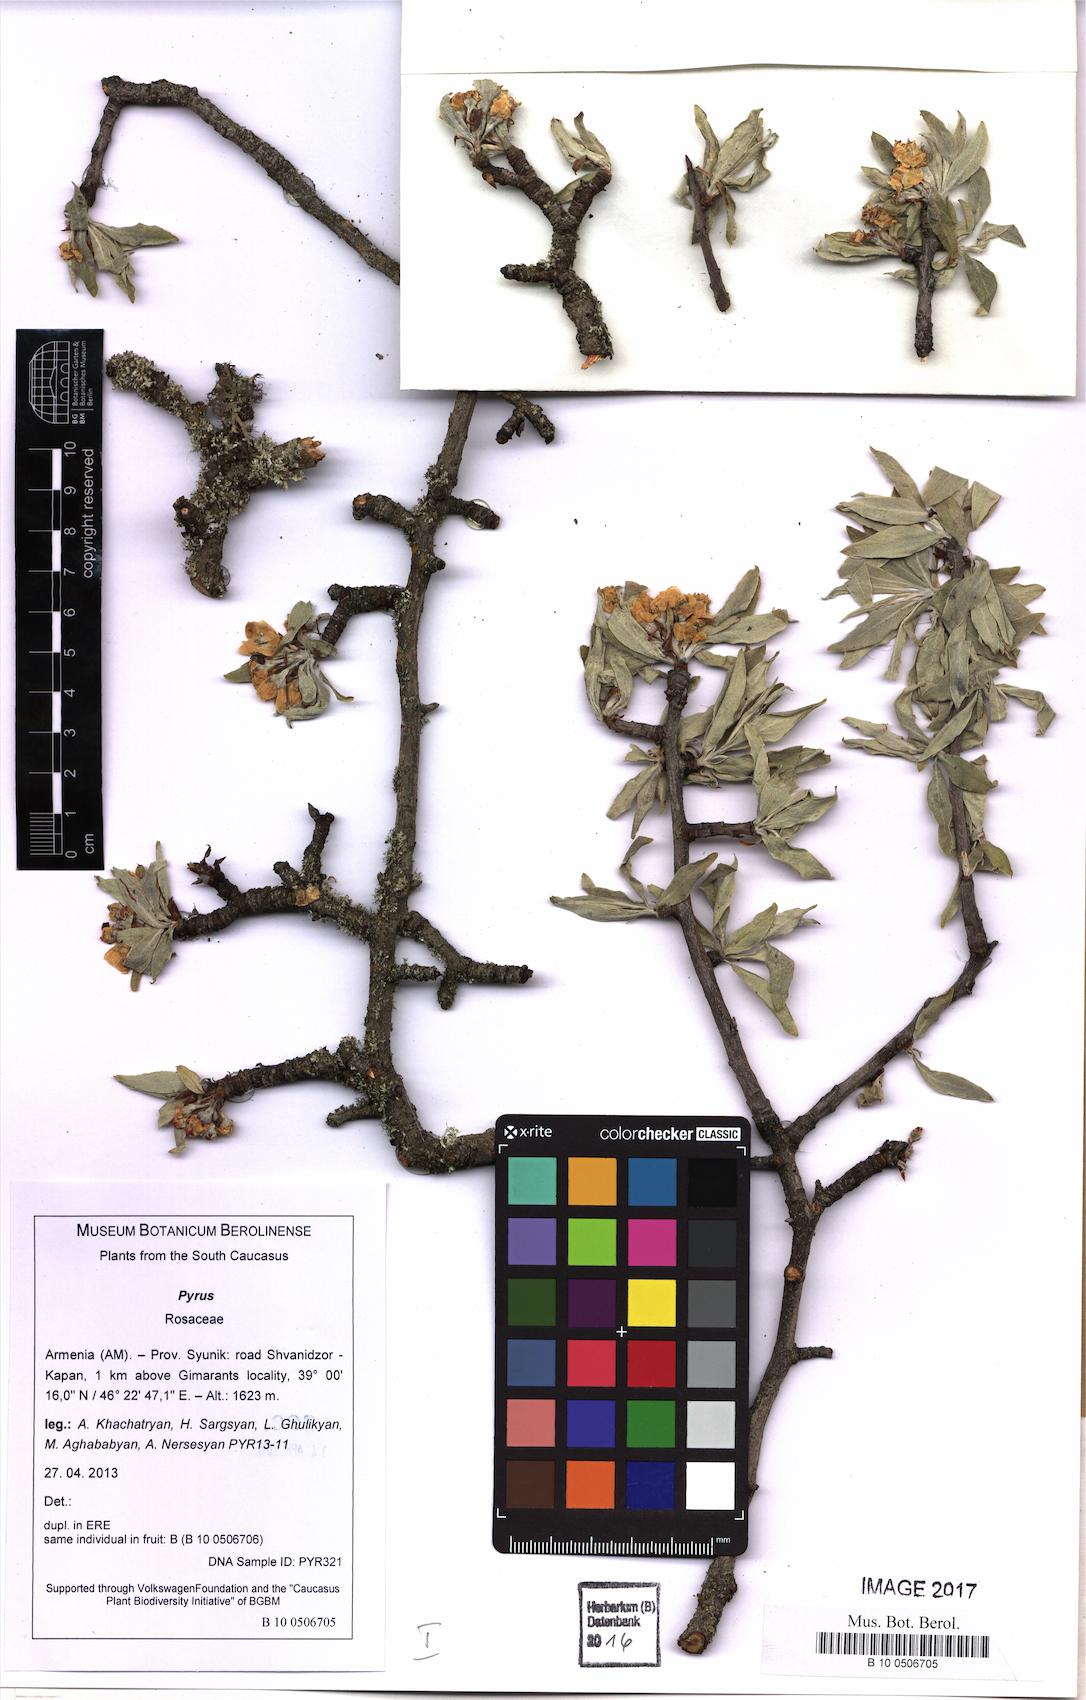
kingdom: Plantae
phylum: Tracheophyta
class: Magnoliopsida
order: Rosales
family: Rosaceae
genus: Pyrus
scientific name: Pyrus
